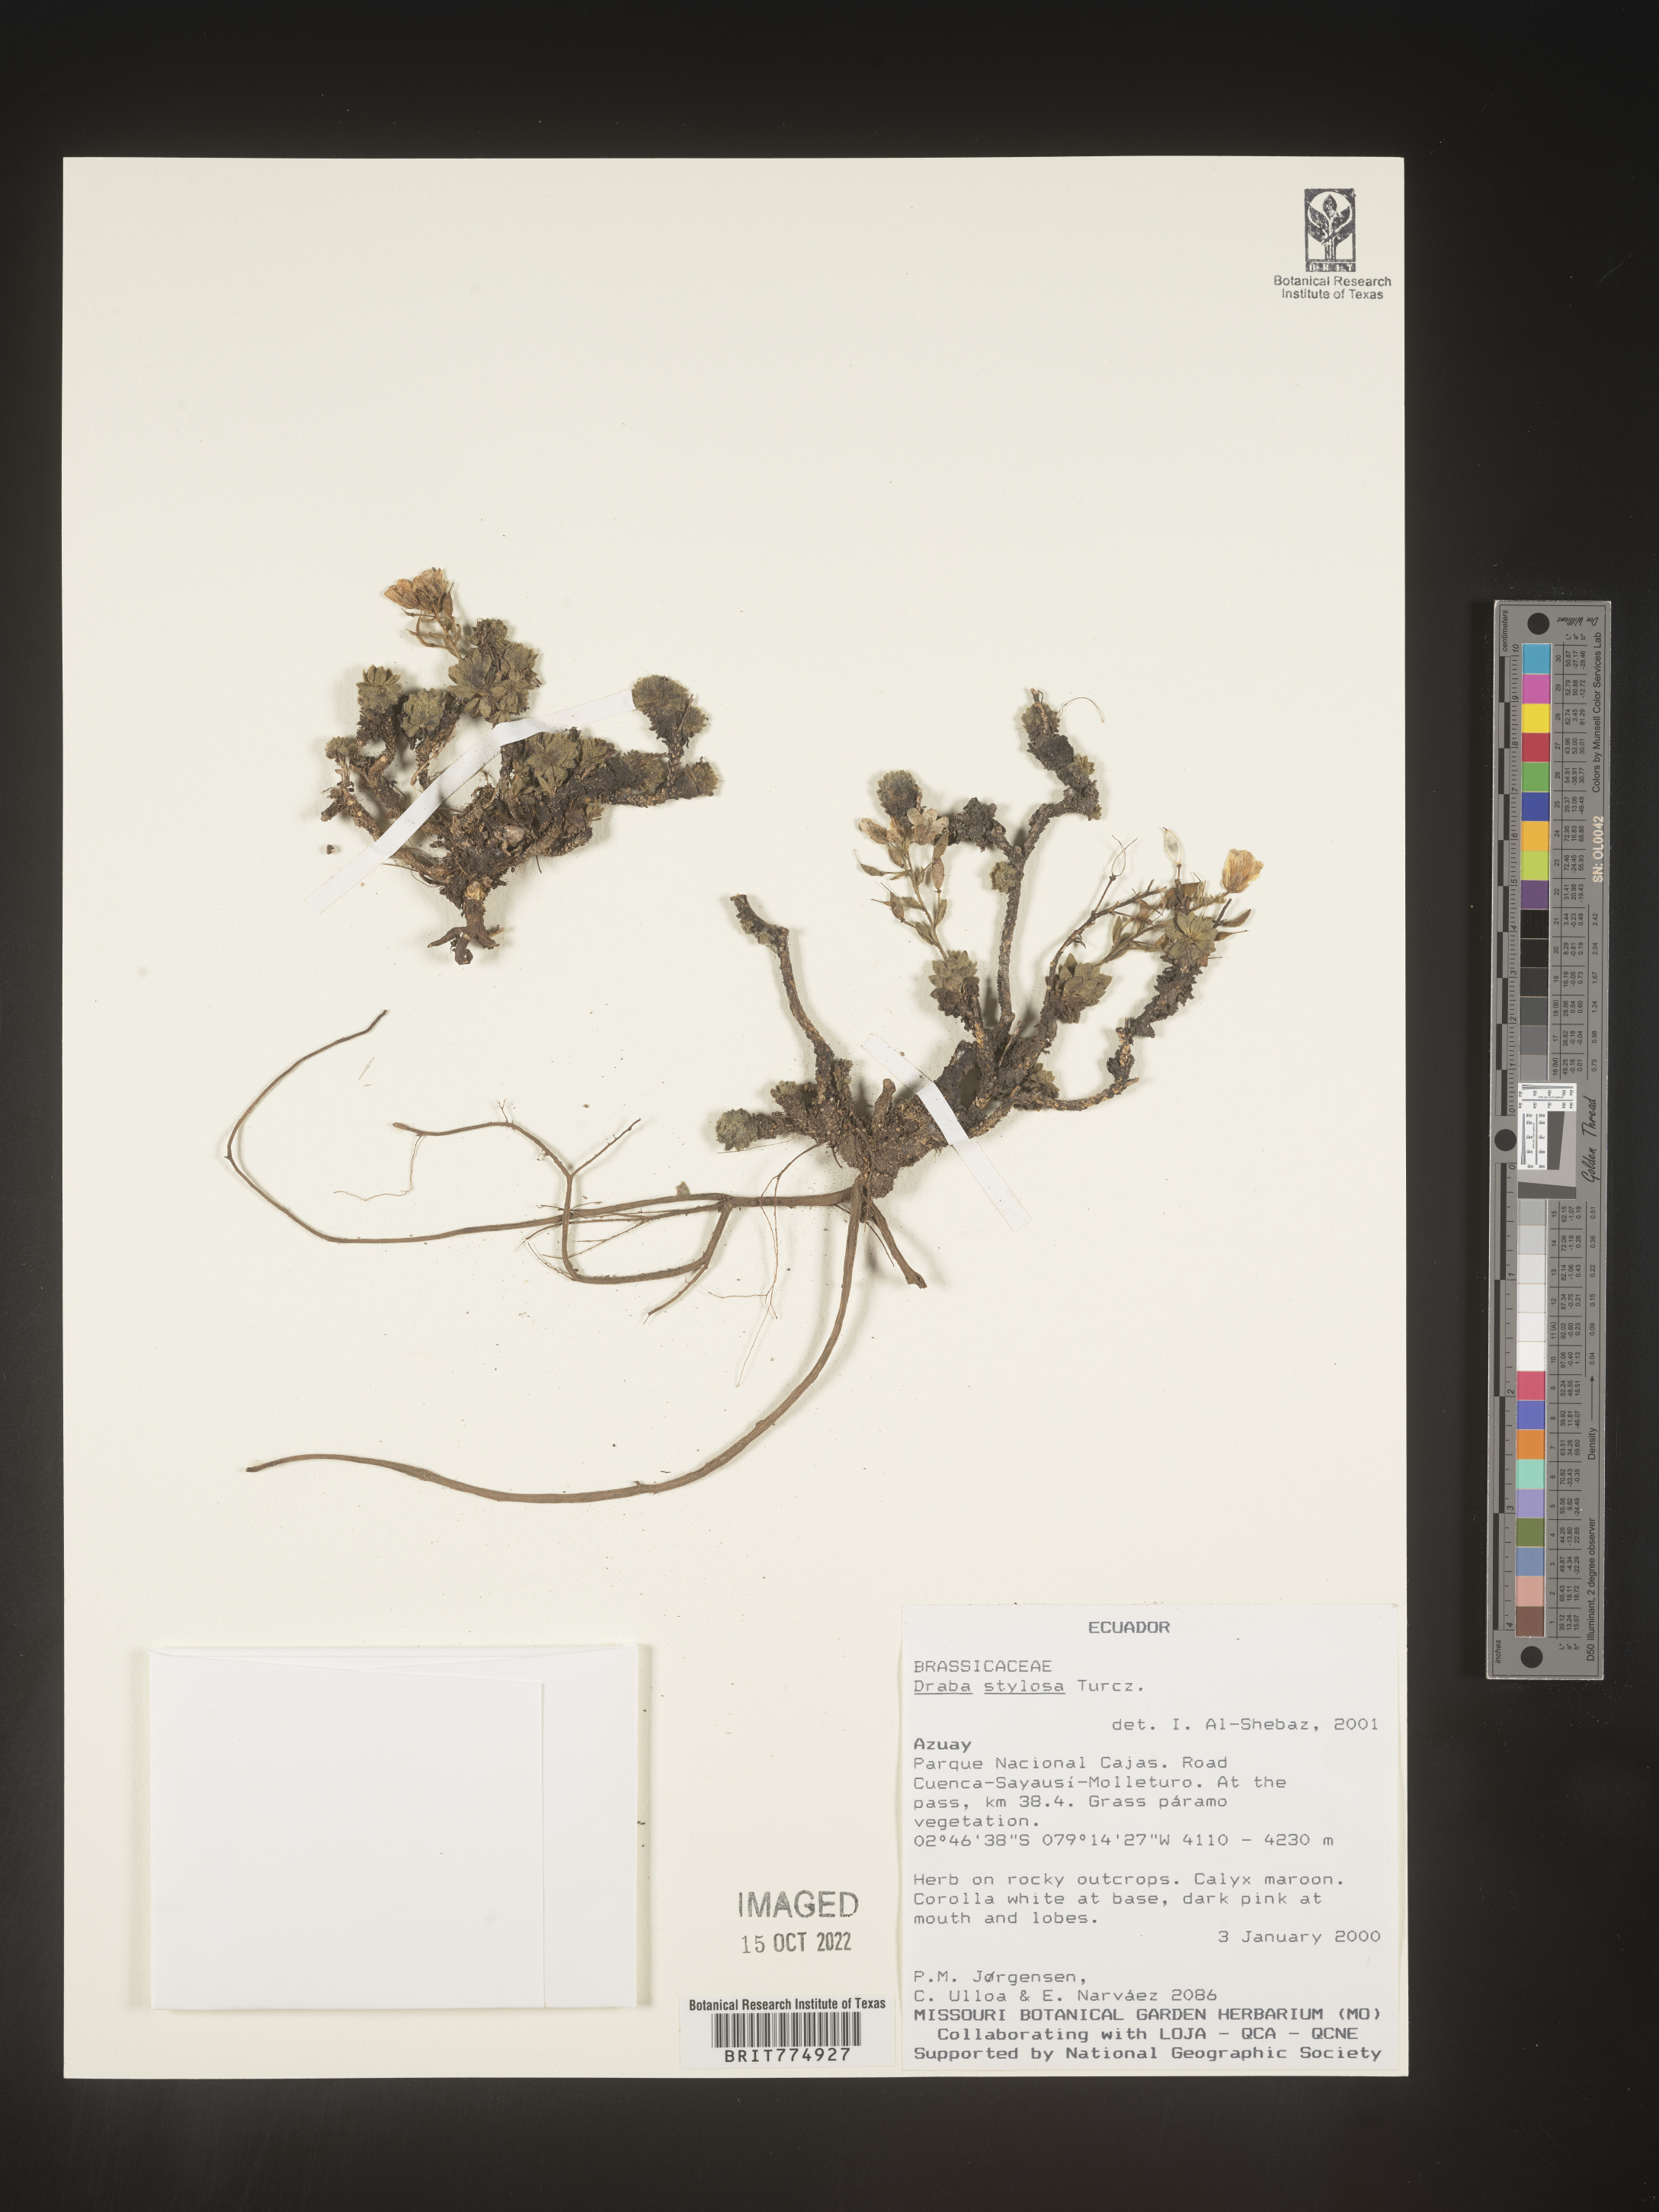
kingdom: Plantae
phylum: Tracheophyta
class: Magnoliopsida
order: Brassicales
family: Brassicaceae
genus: Draba
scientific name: Draba
